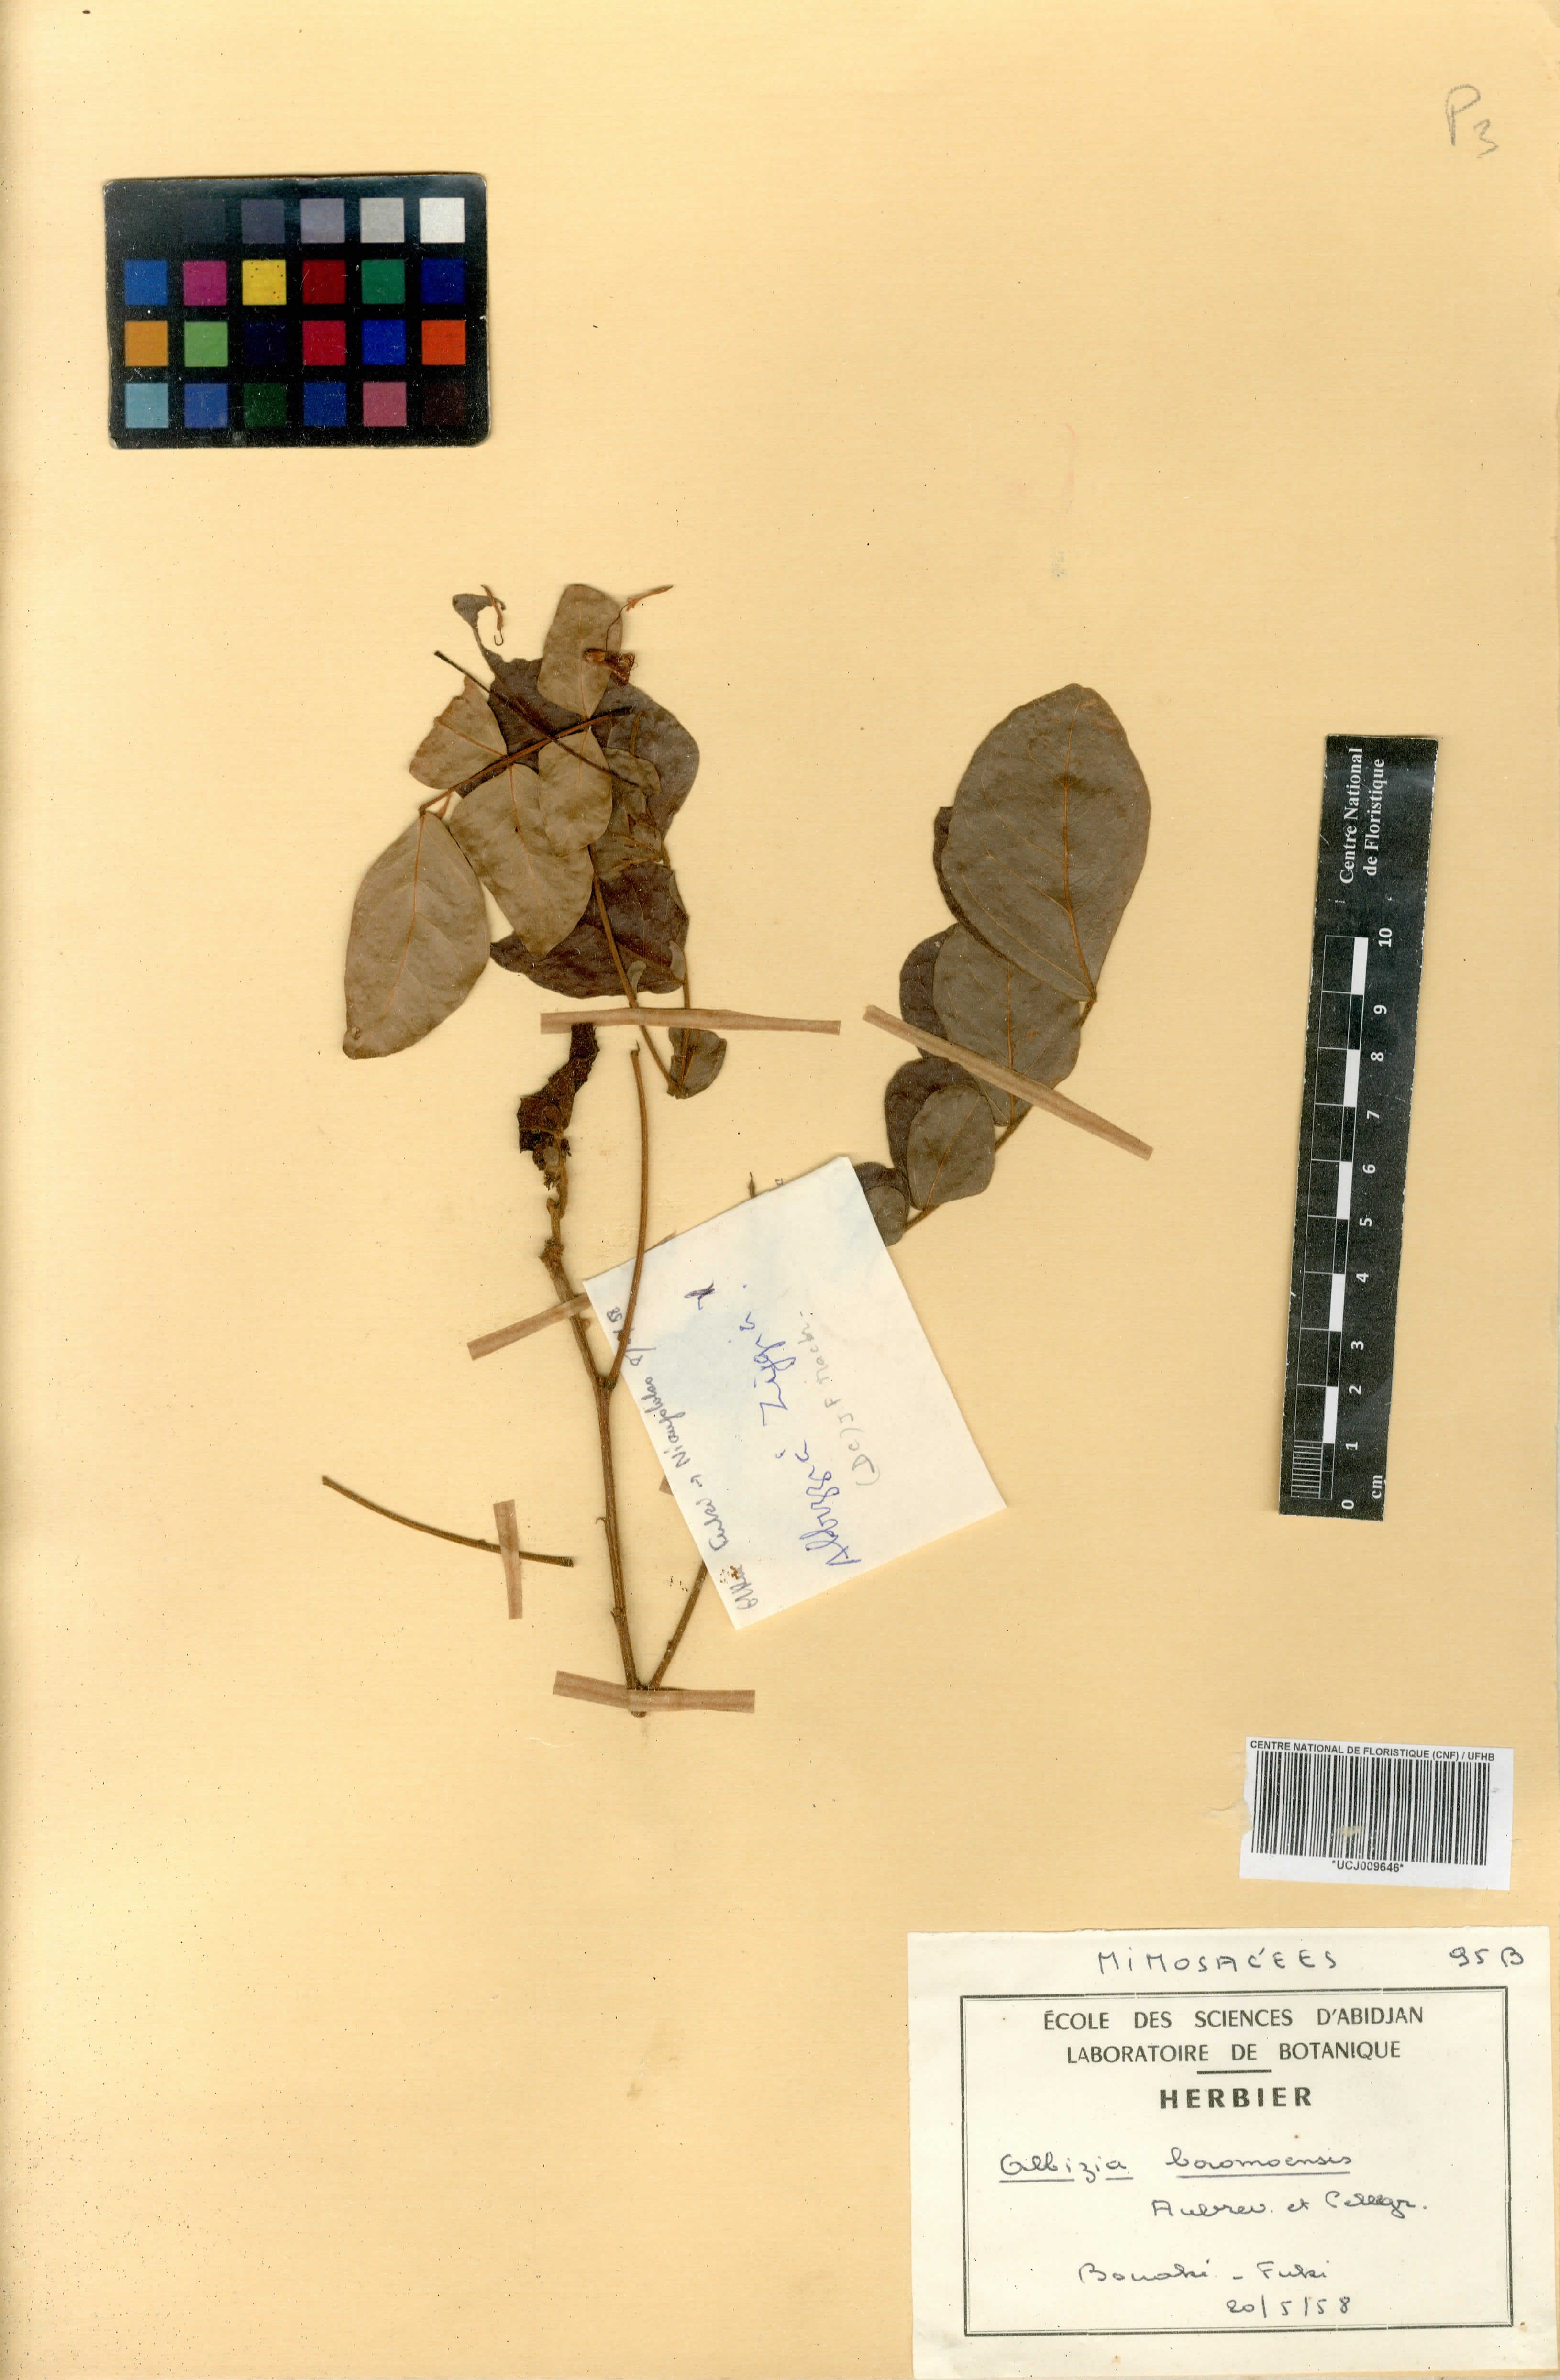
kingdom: Plantae
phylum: Tracheophyta
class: Magnoliopsida
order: Fabales
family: Fabaceae
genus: Albizia
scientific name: Albizia malacophylla
